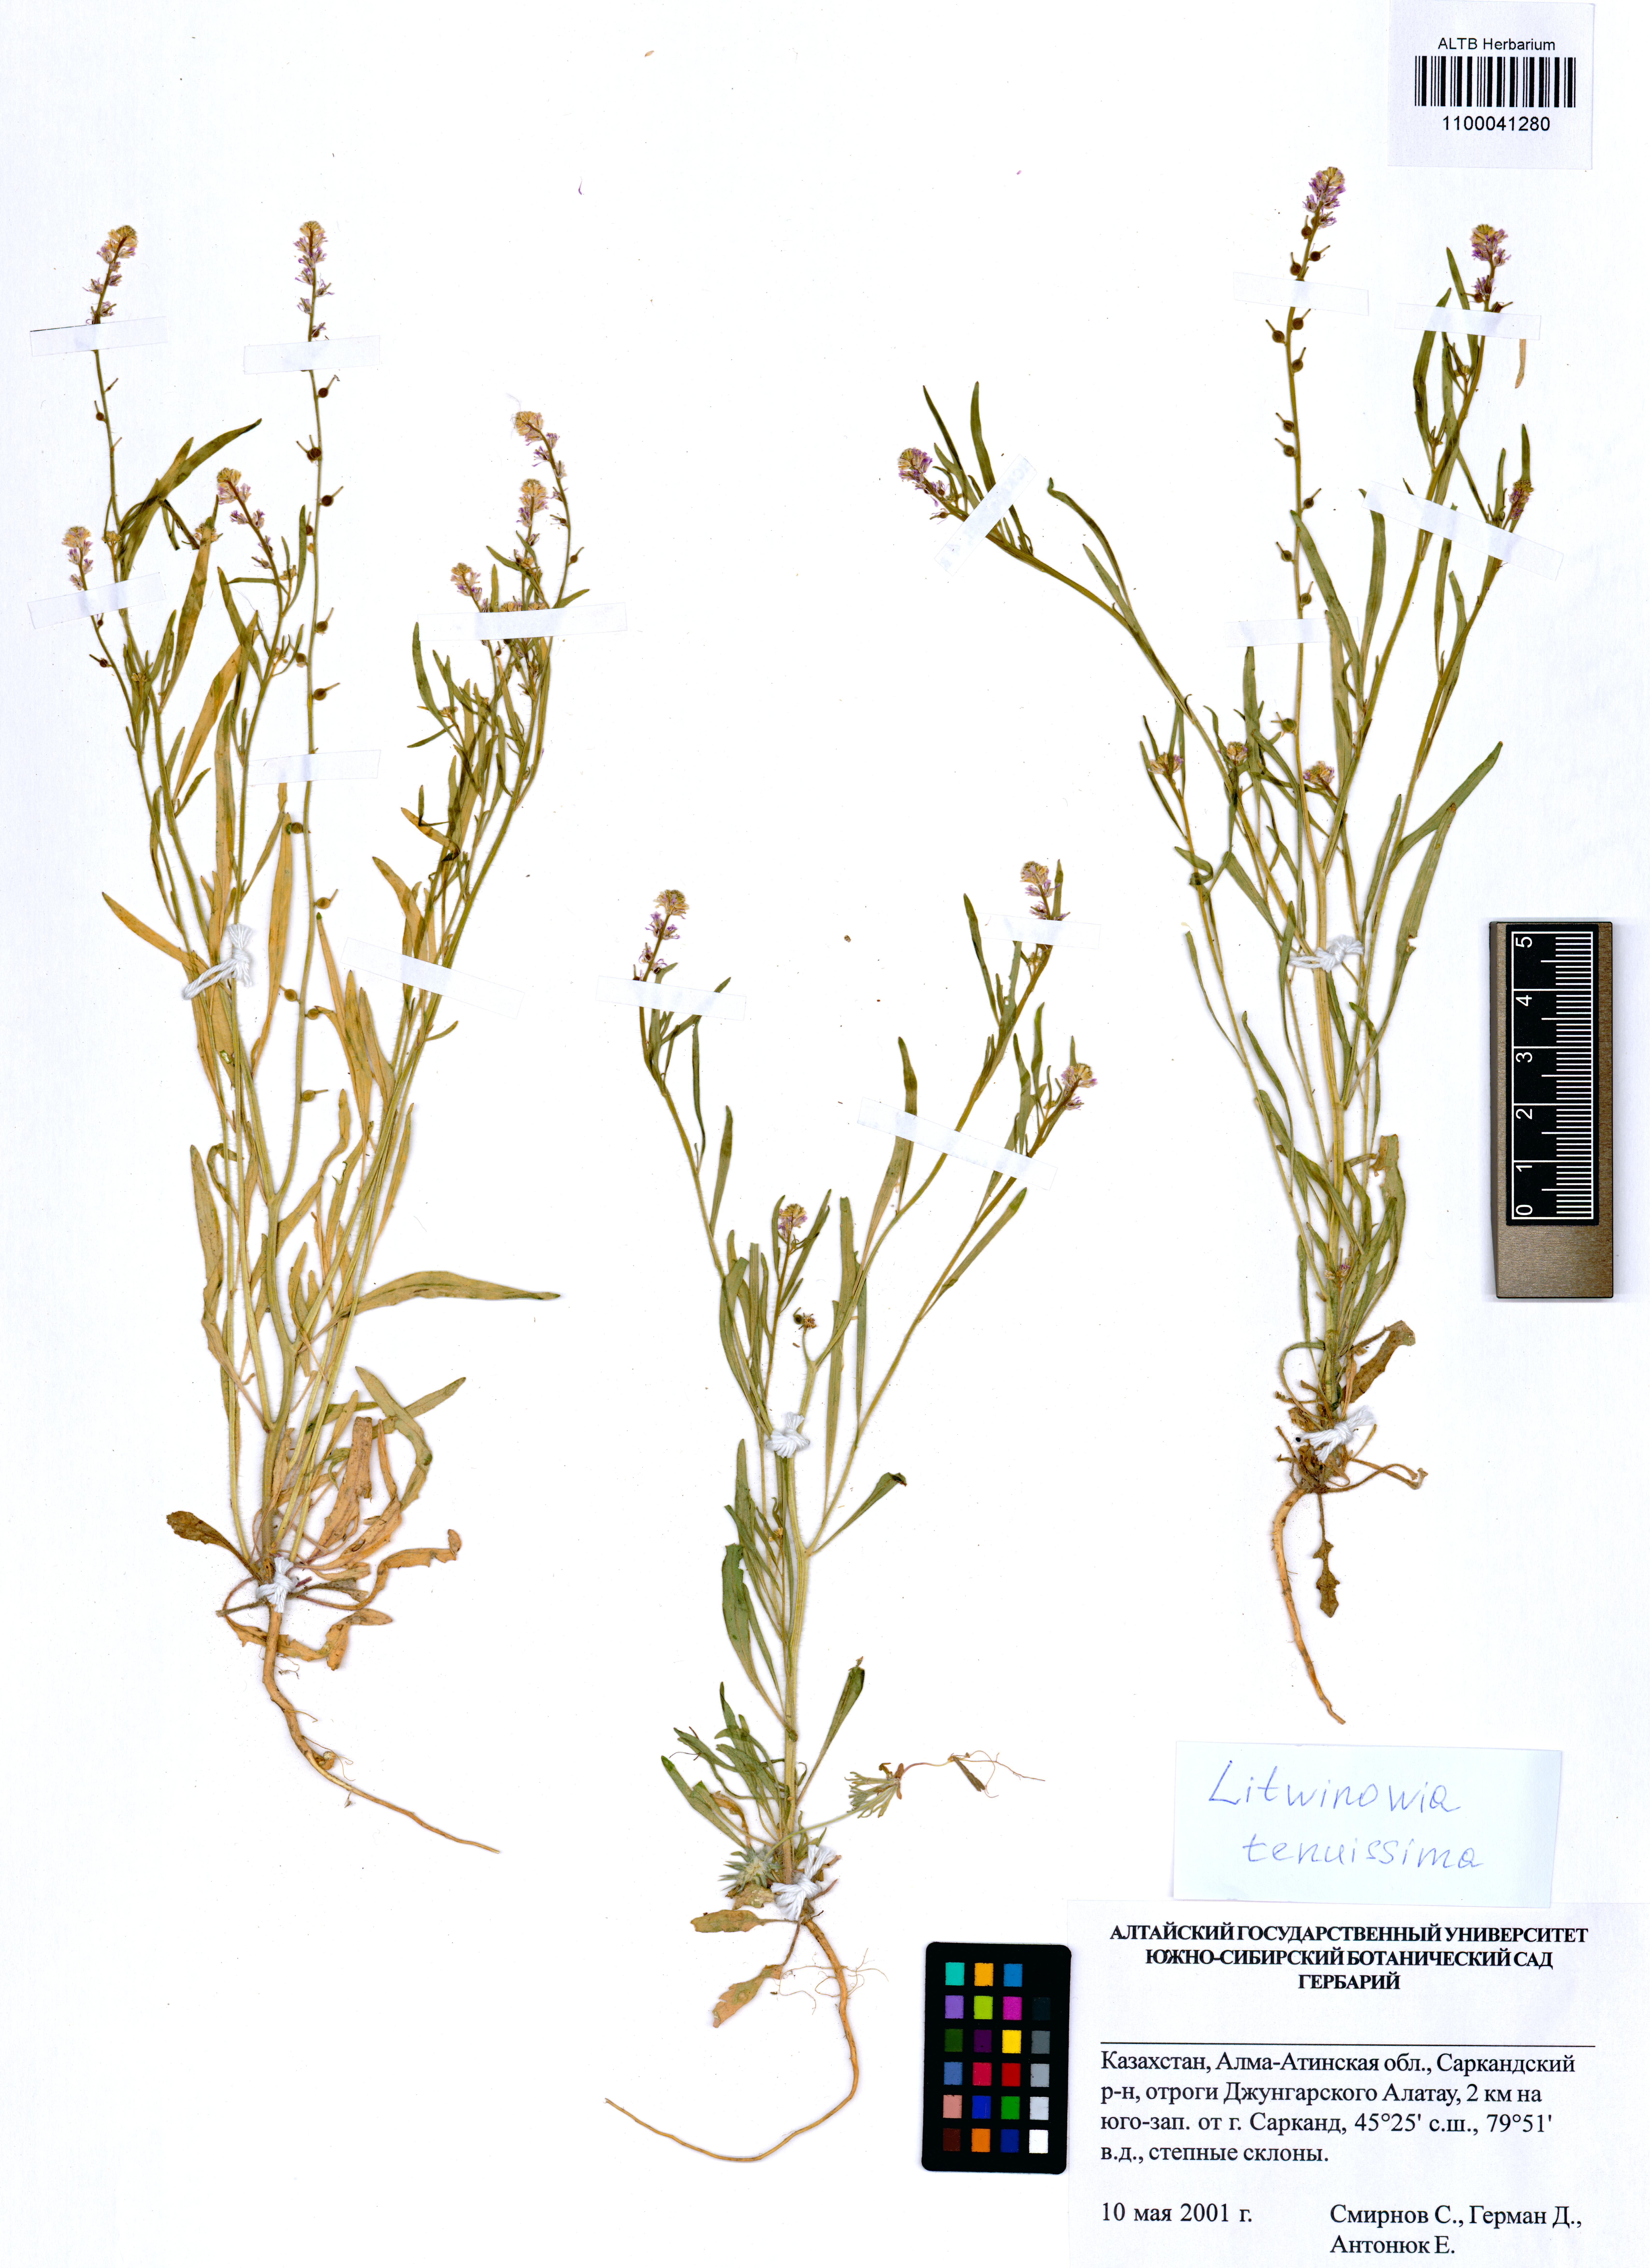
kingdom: Plantae
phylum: Tracheophyta
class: Magnoliopsida
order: Brassicales
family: Brassicaceae
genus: Litwinowia
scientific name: Litwinowia tenuissima
